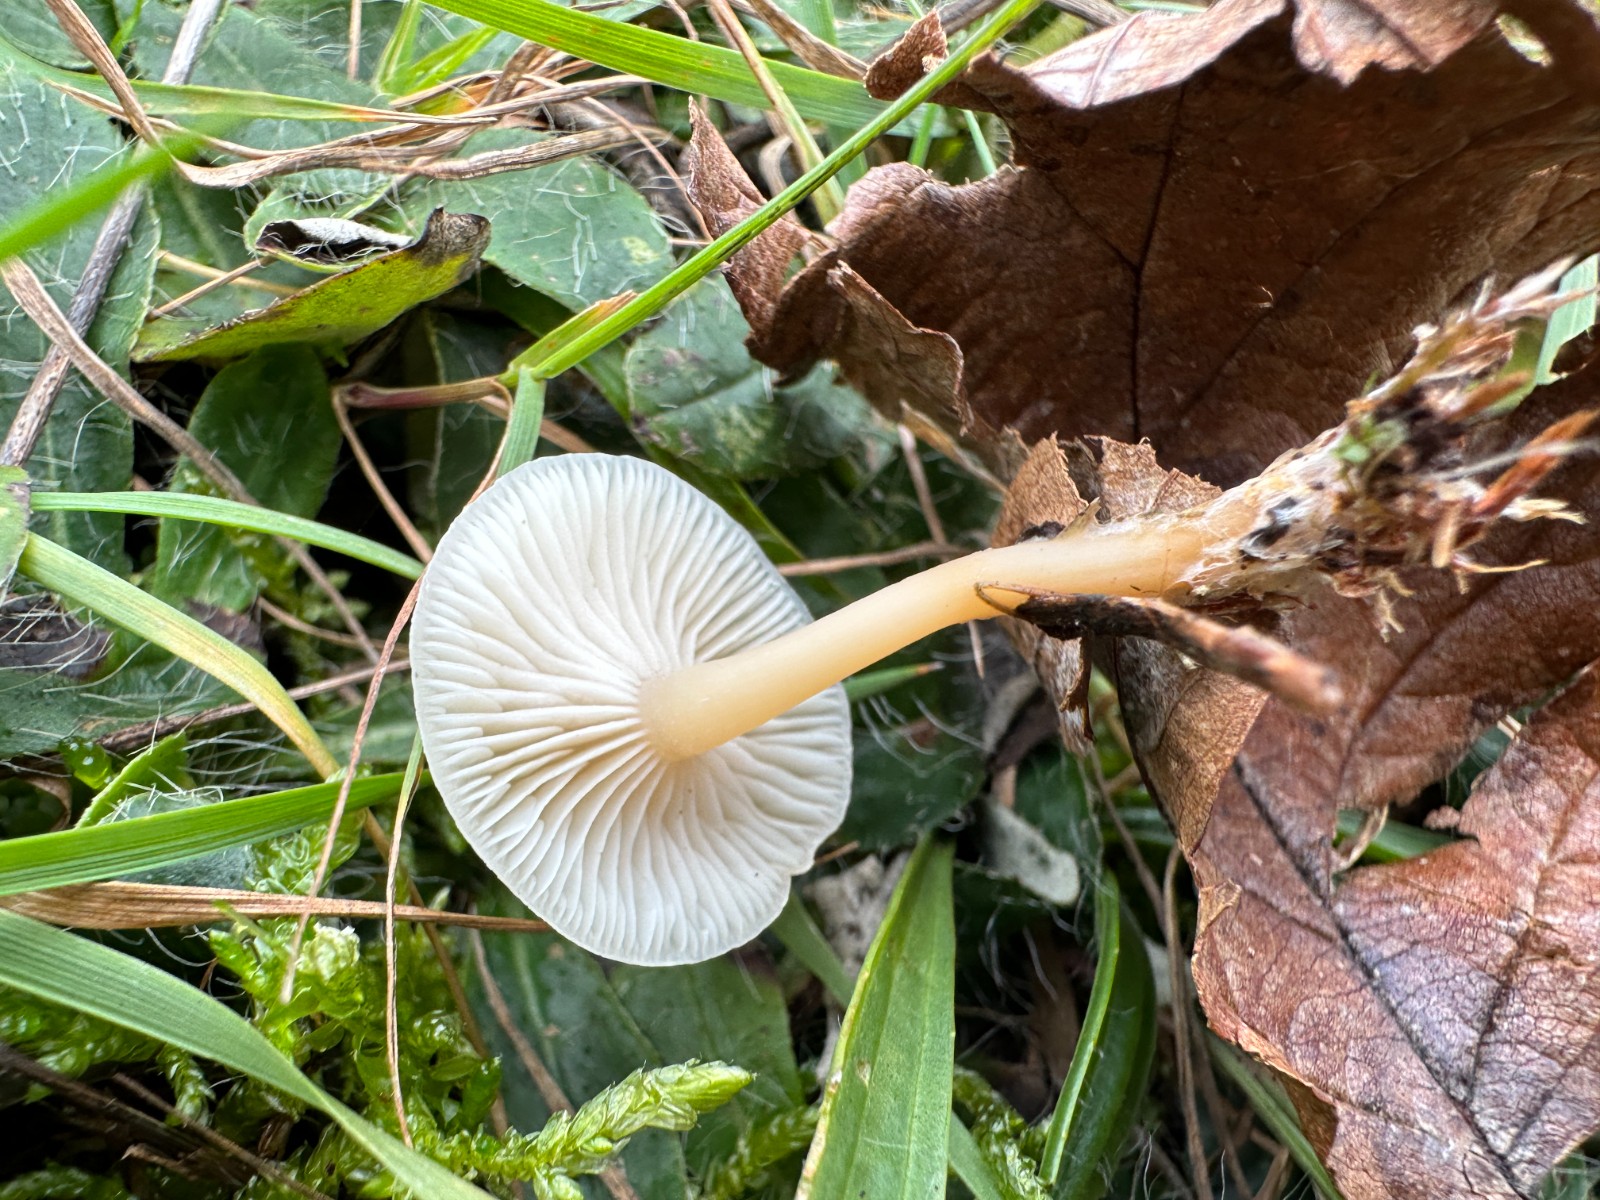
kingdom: Fungi
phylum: Basidiomycota
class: Agaricomycetes
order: Agaricales
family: Tricholomataceae
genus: Clitocybe
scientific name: Clitocybe fragrans
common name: vellugtende tragthat
